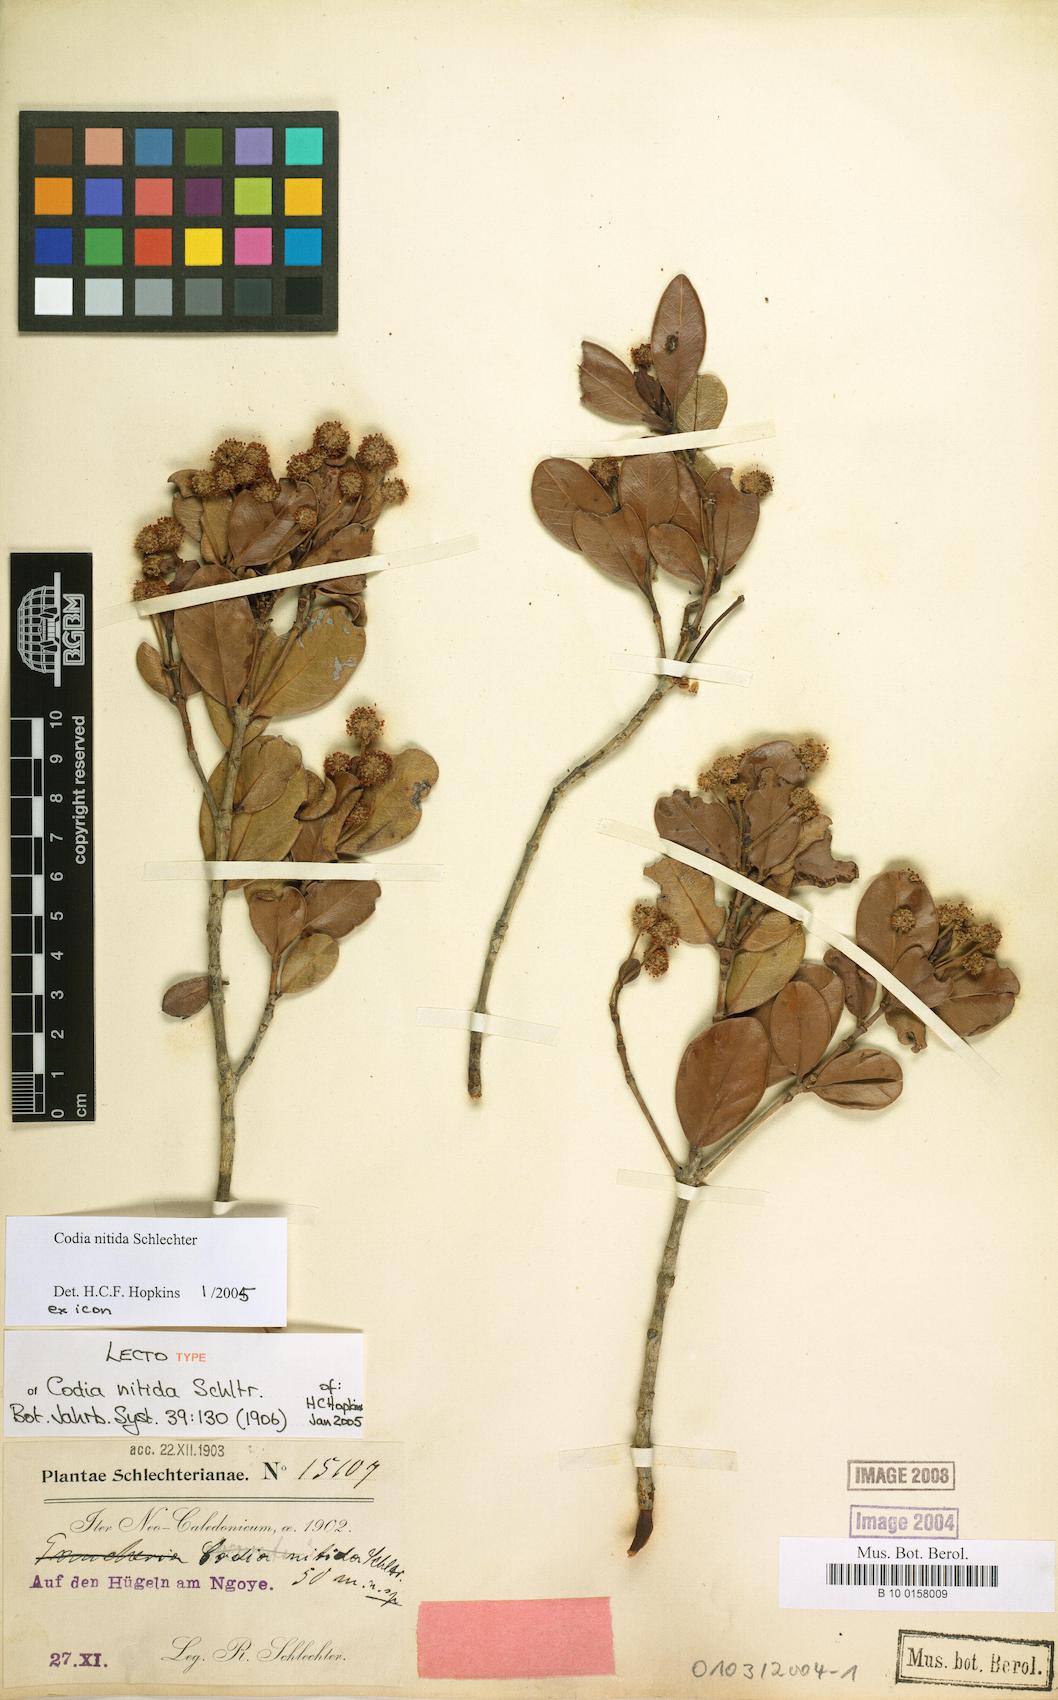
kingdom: Plantae
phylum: Tracheophyta
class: Magnoliopsida
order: Oxalidales
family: Cunoniaceae
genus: Codia
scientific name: Codia nitida
